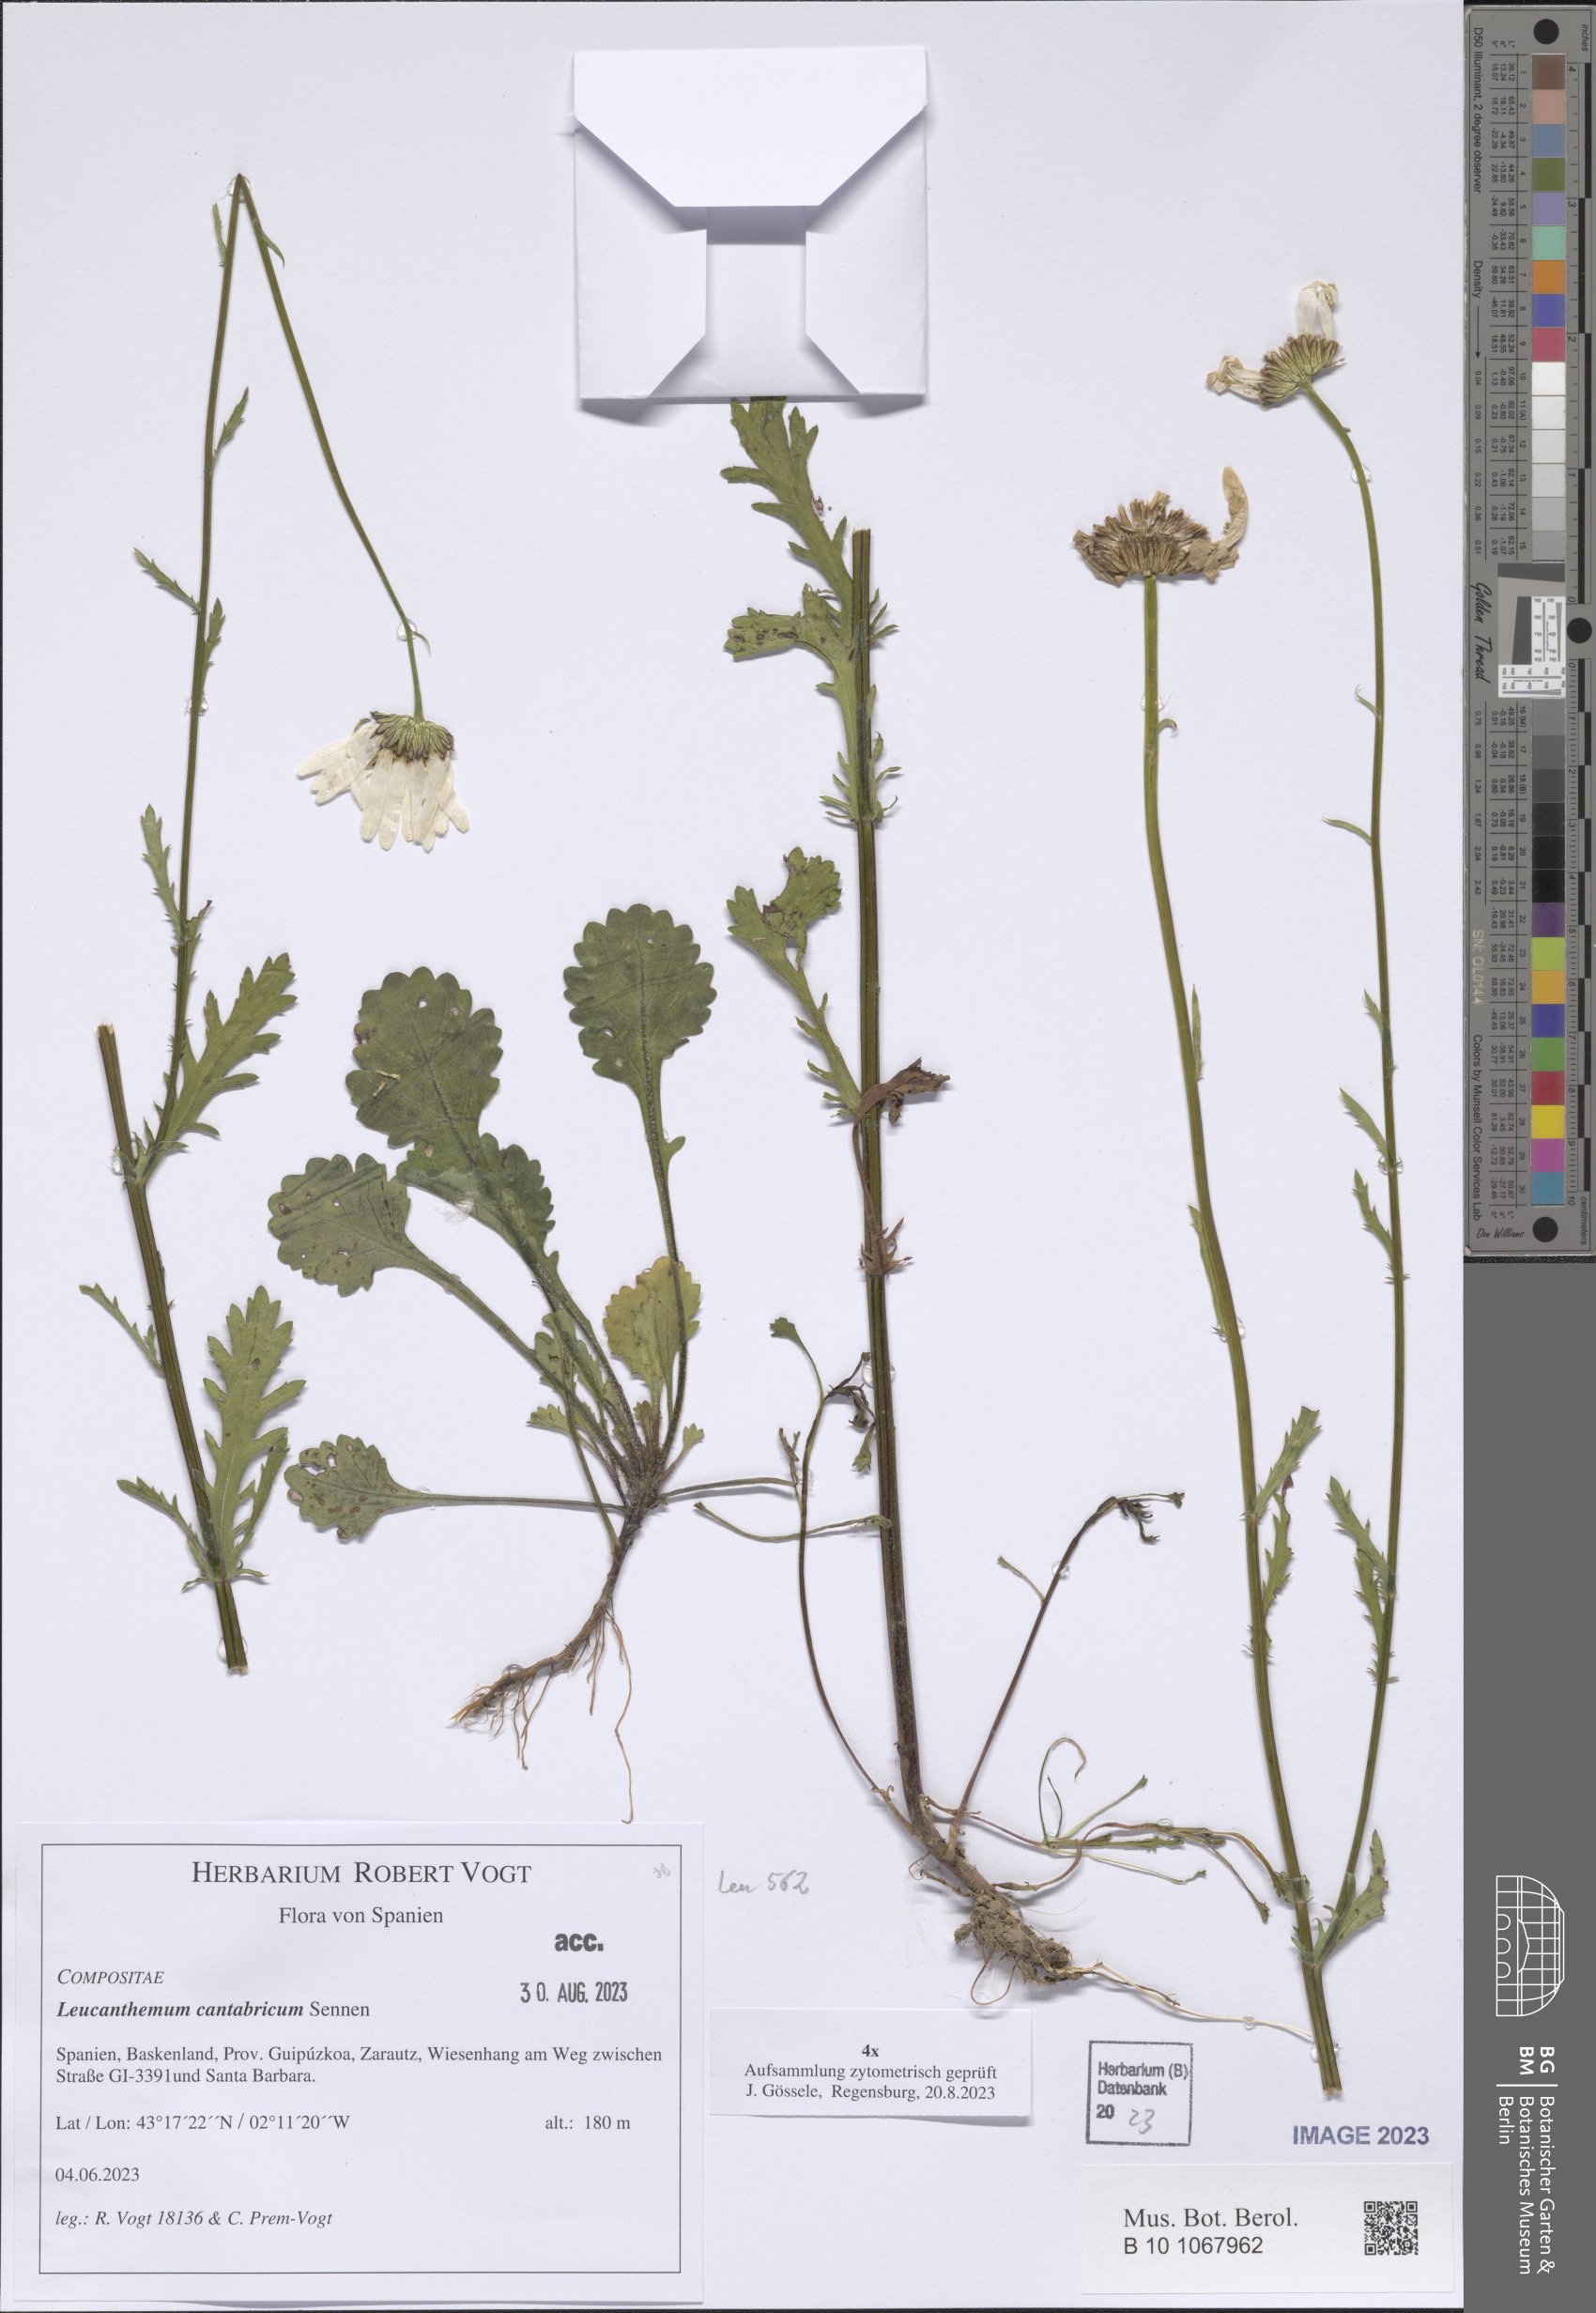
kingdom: Plantae
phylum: Tracheophyta
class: Magnoliopsida
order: Asterales
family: Asteraceae
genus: Leucanthemum
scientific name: Leucanthemum cantabricum
